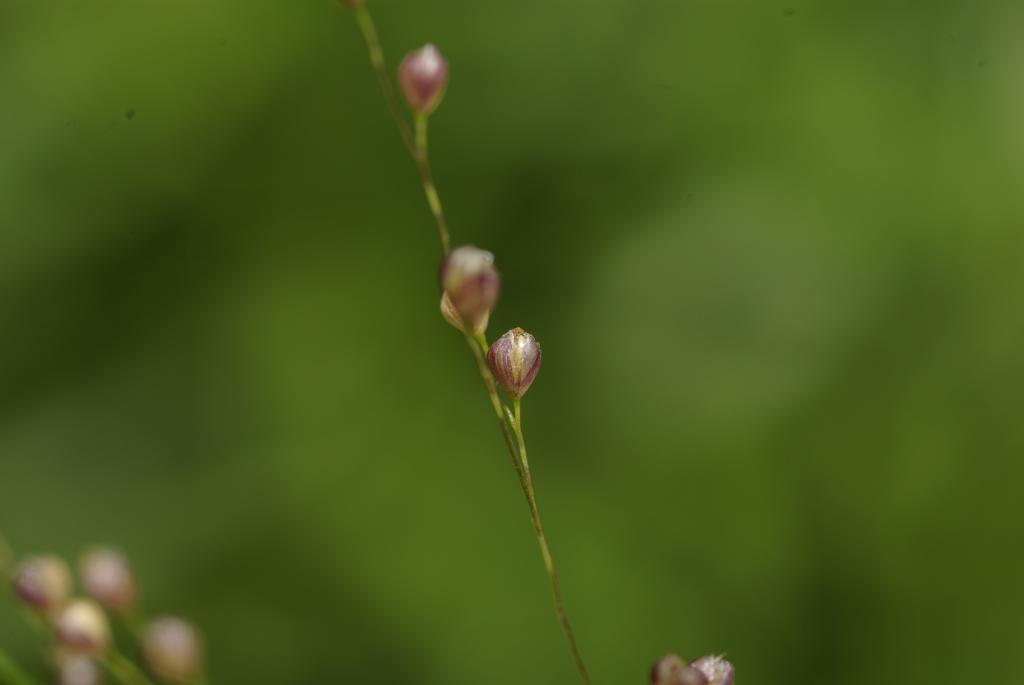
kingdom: Plantae
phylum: Tracheophyta
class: Liliopsida
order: Poales
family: Poaceae
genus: Isachne
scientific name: Isachne globosa
